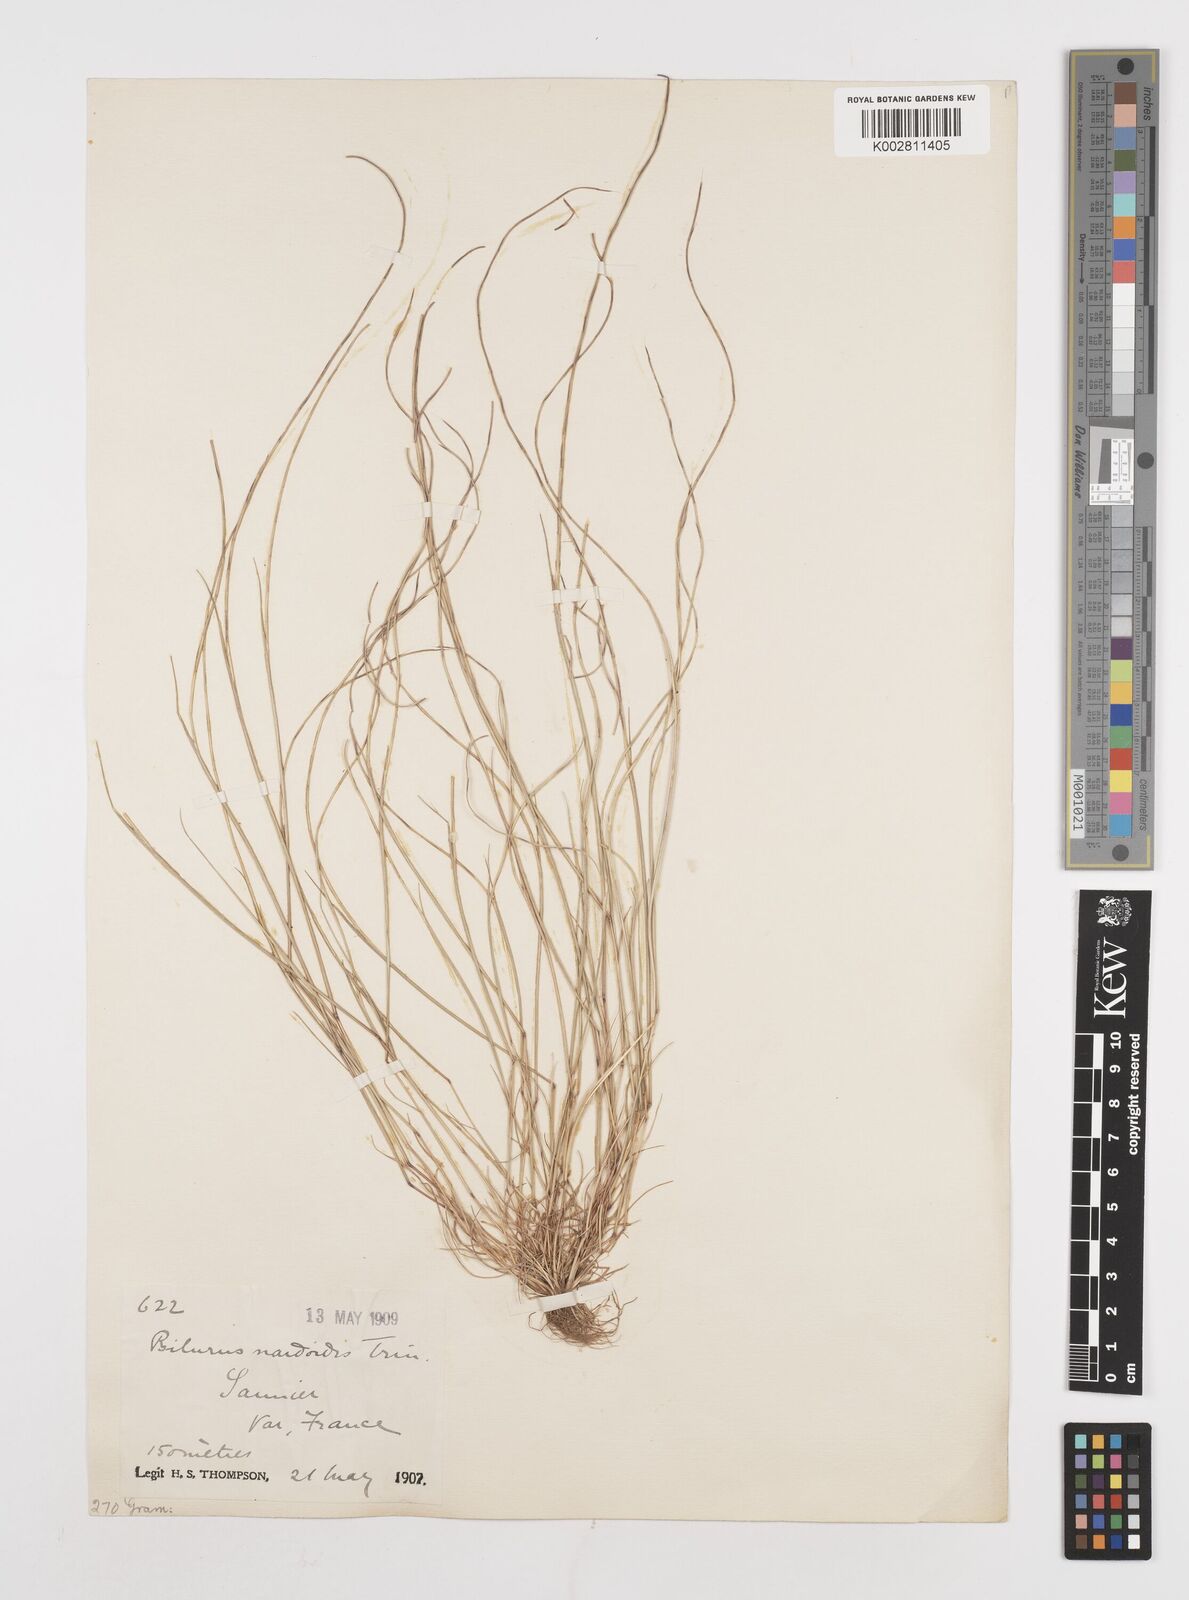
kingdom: Plantae
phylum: Tracheophyta
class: Liliopsida
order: Poales
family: Poaceae
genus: Festuca
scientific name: Festuca incurva
